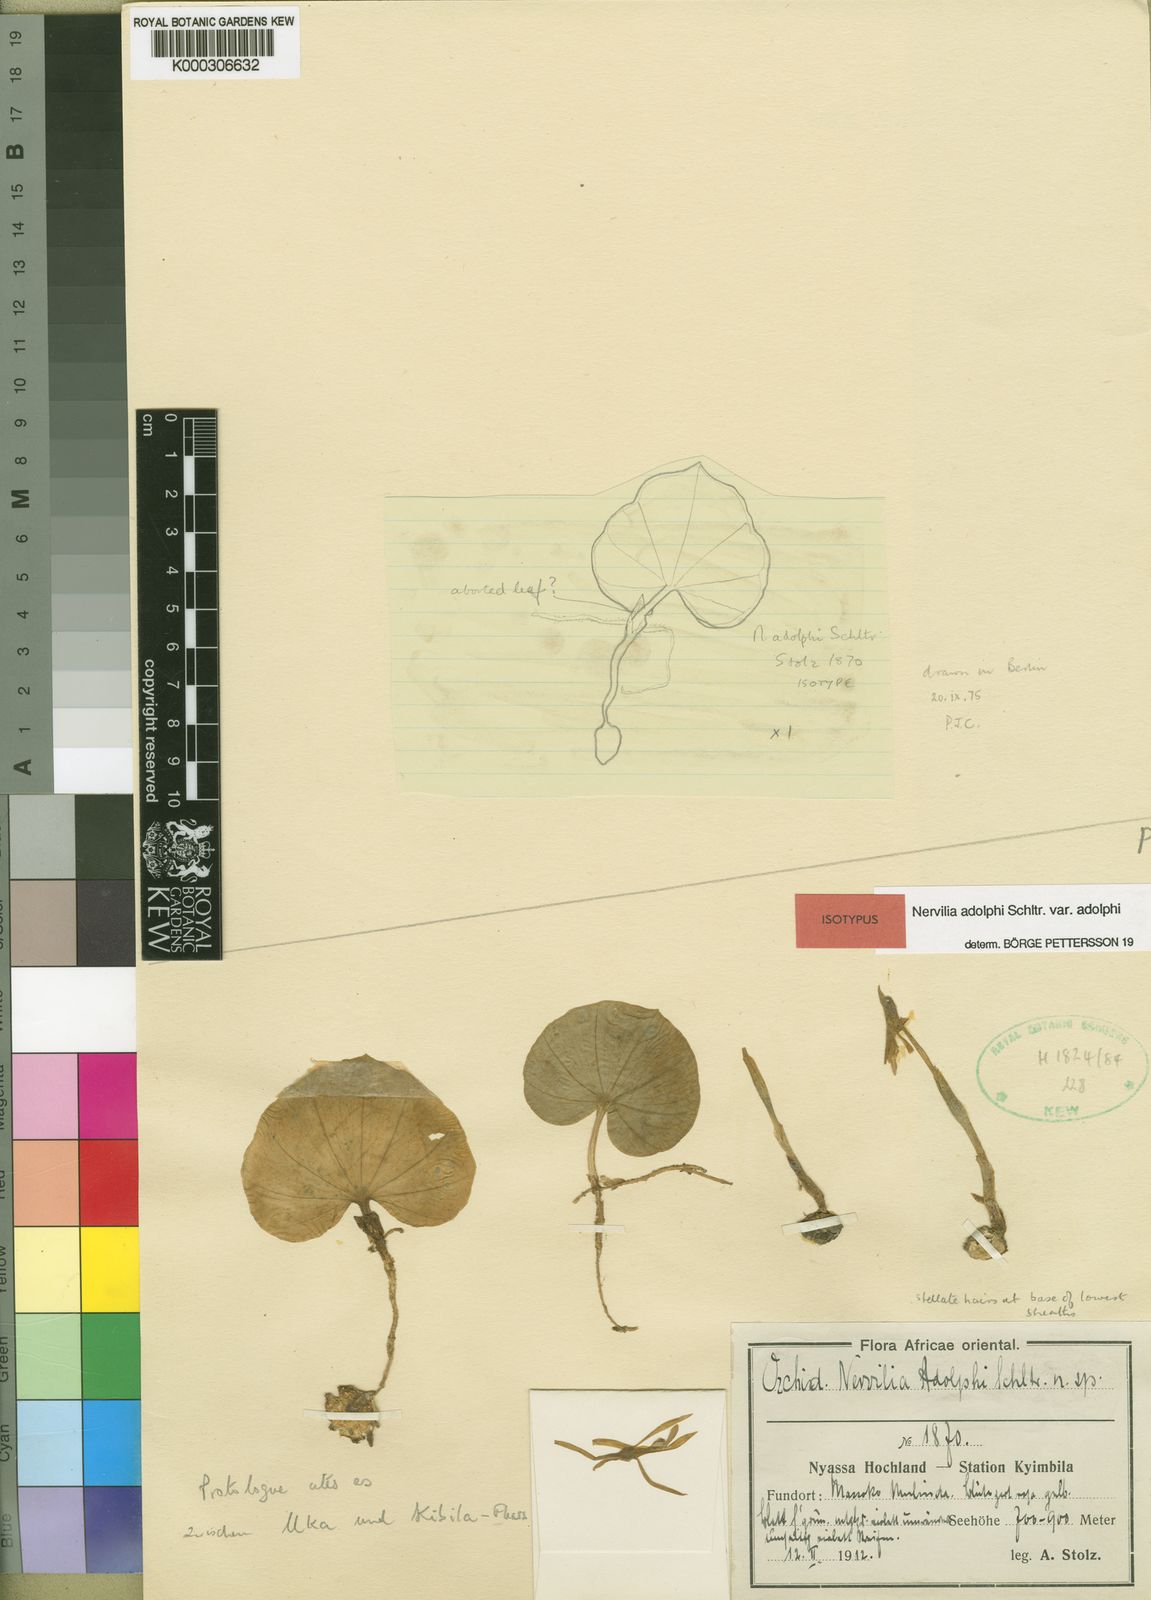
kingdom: Plantae
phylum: Tracheophyta
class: Liliopsida
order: Asparagales
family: Orchidaceae
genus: Nervilia
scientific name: Nervilia adolphi
